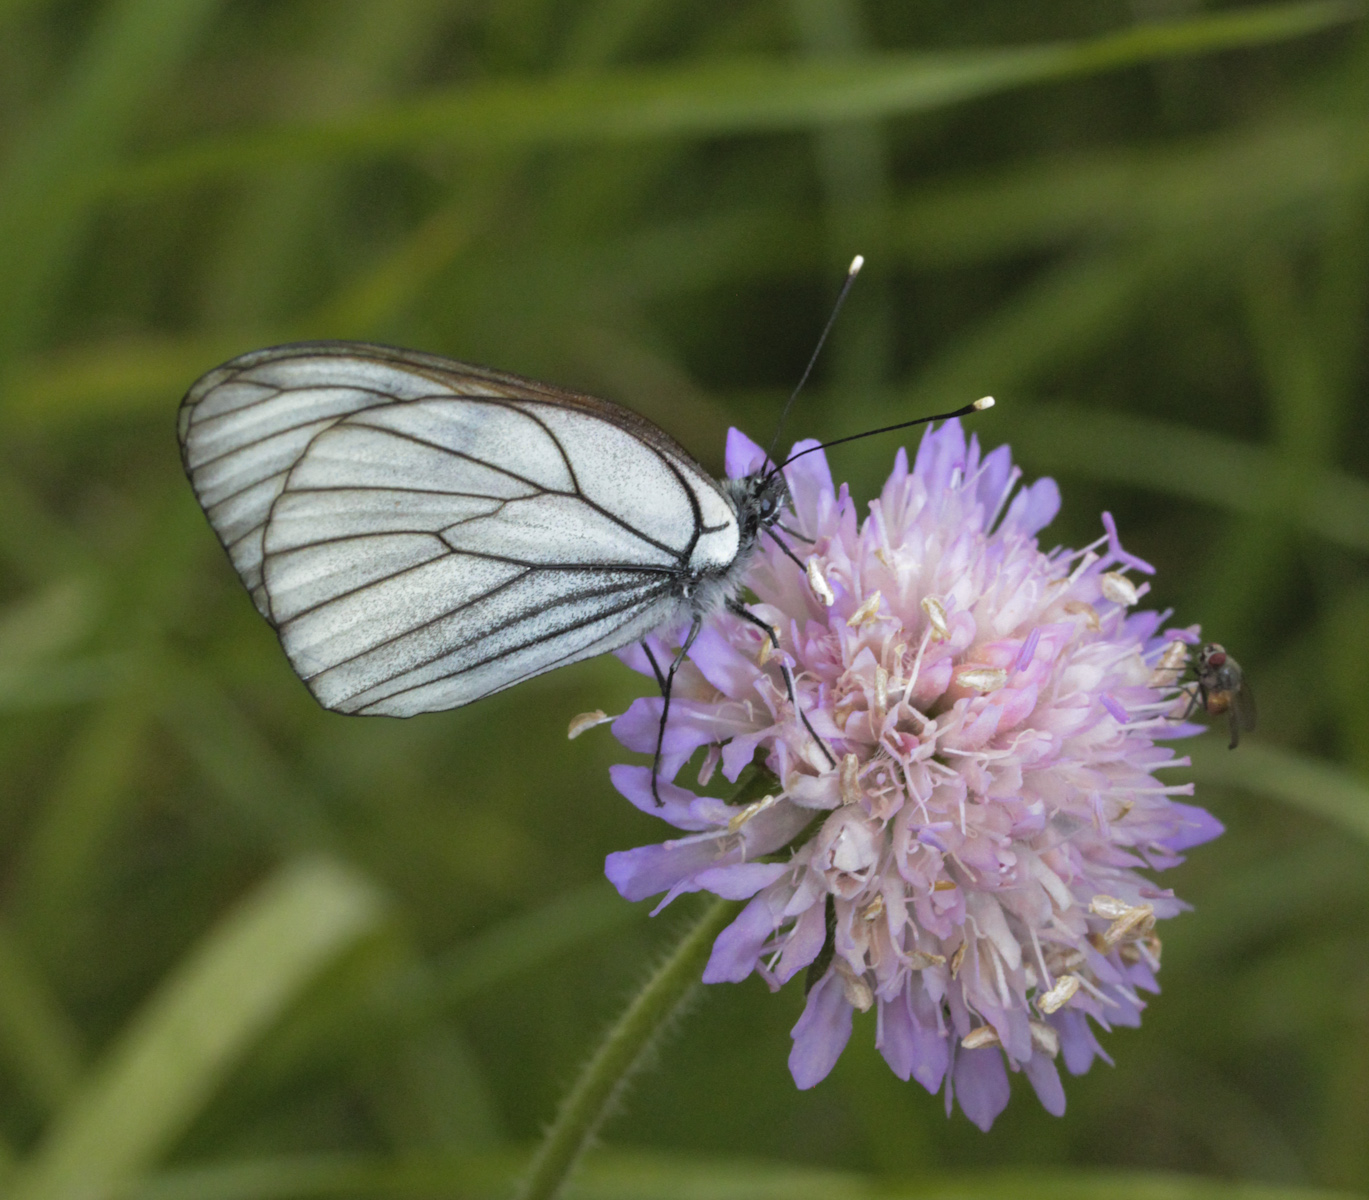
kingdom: Animalia
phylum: Arthropoda
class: Insecta
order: Lepidoptera
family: Pieridae
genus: Aporia
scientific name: Aporia crataegi
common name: Black-veined white
